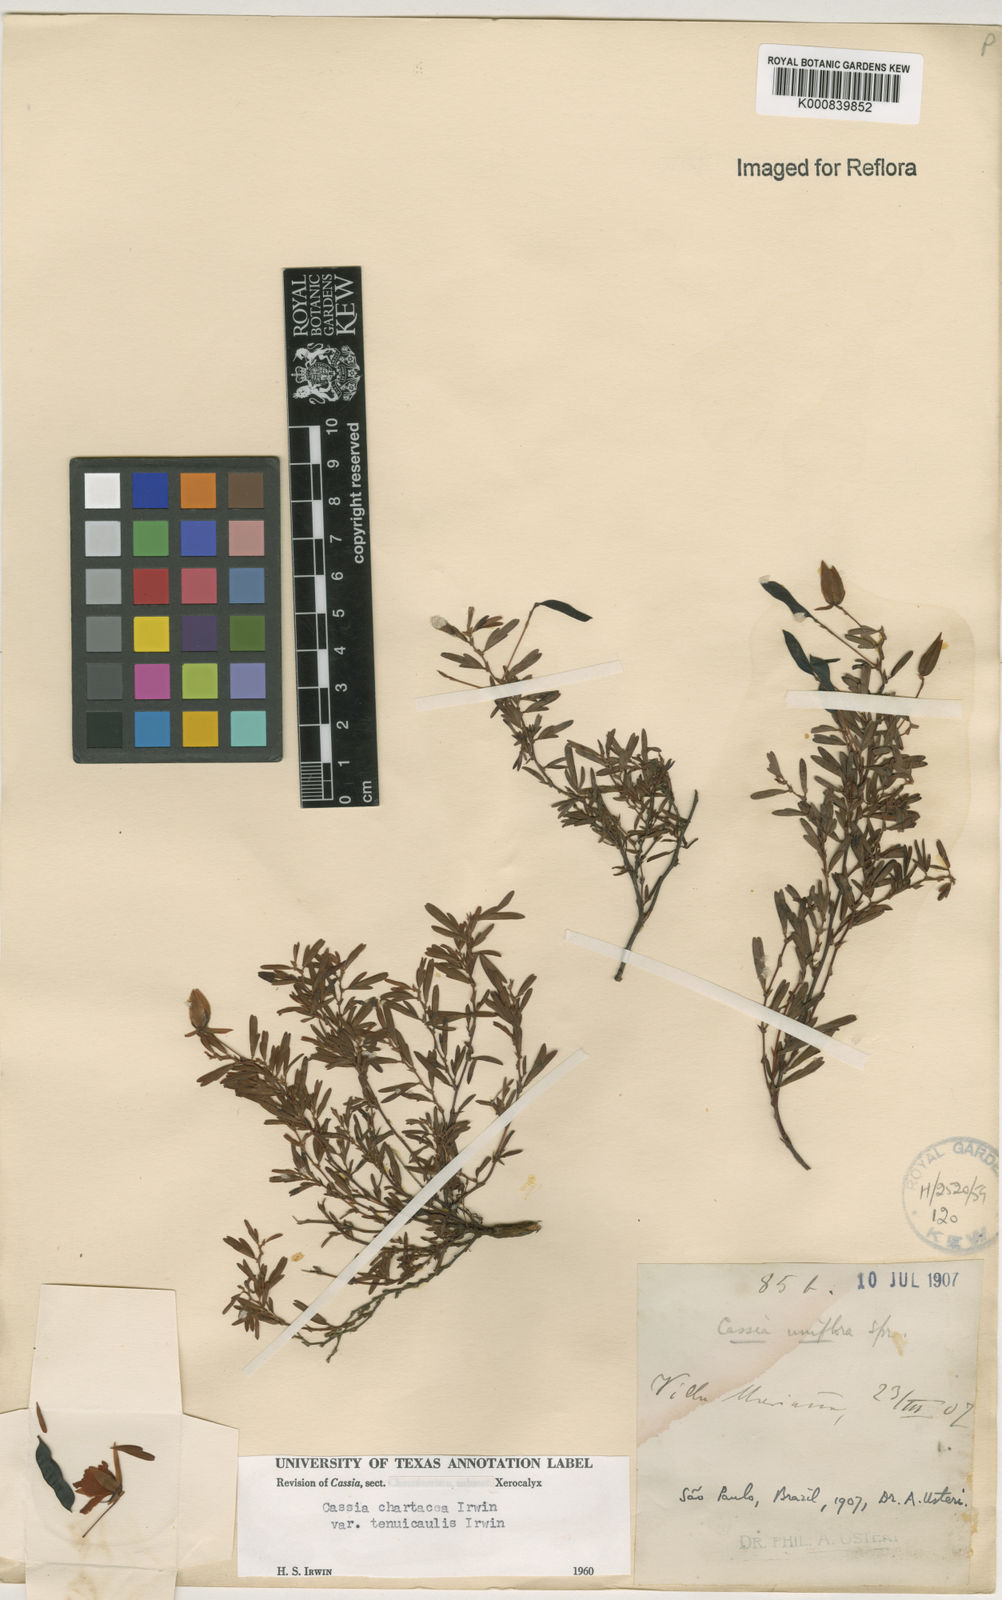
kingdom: Plantae
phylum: Tracheophyta
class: Magnoliopsida
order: Fabales
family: Fabaceae
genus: Chamaecrista
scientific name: Chamaecrista ramosa
